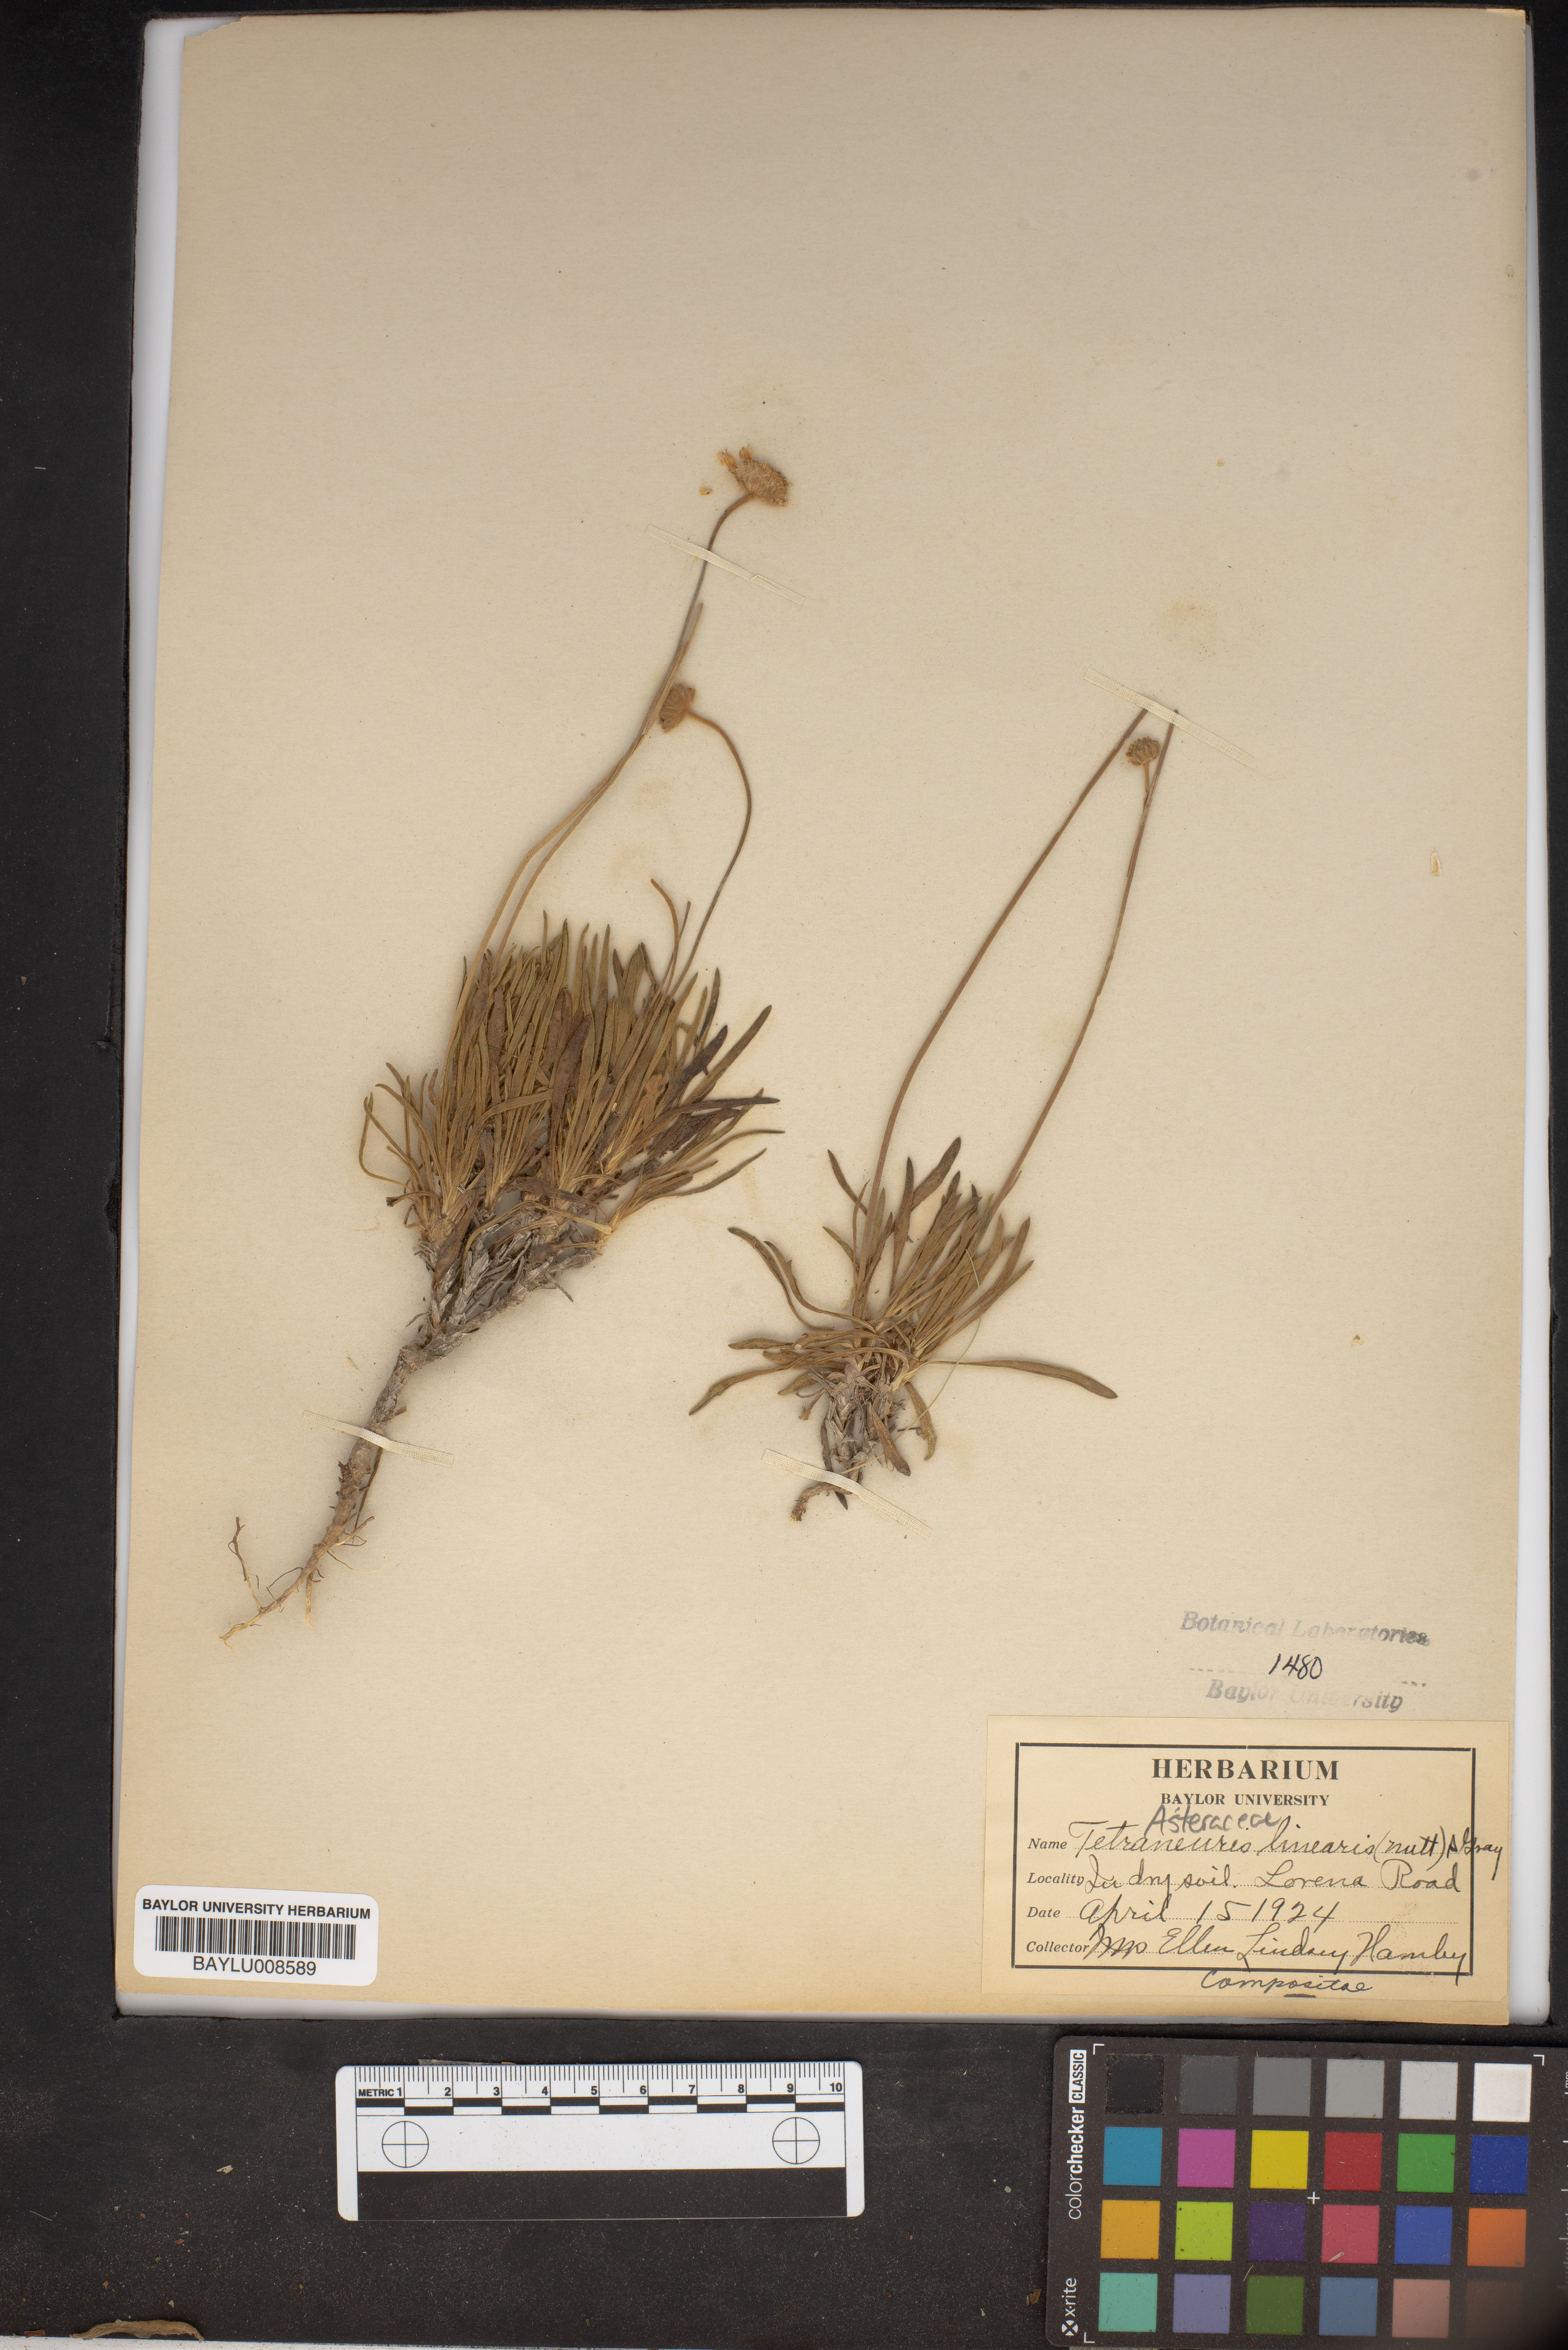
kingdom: Plantae
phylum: Tracheophyta
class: Magnoliopsida
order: Asterales
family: Asteraceae
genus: Tetraneuris
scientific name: Tetraneuris scaposa
